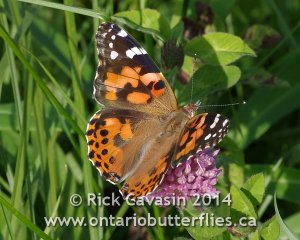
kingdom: Animalia
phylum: Arthropoda
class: Insecta
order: Lepidoptera
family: Nymphalidae
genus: Vanessa
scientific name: Vanessa cardui
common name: Painted Lady
